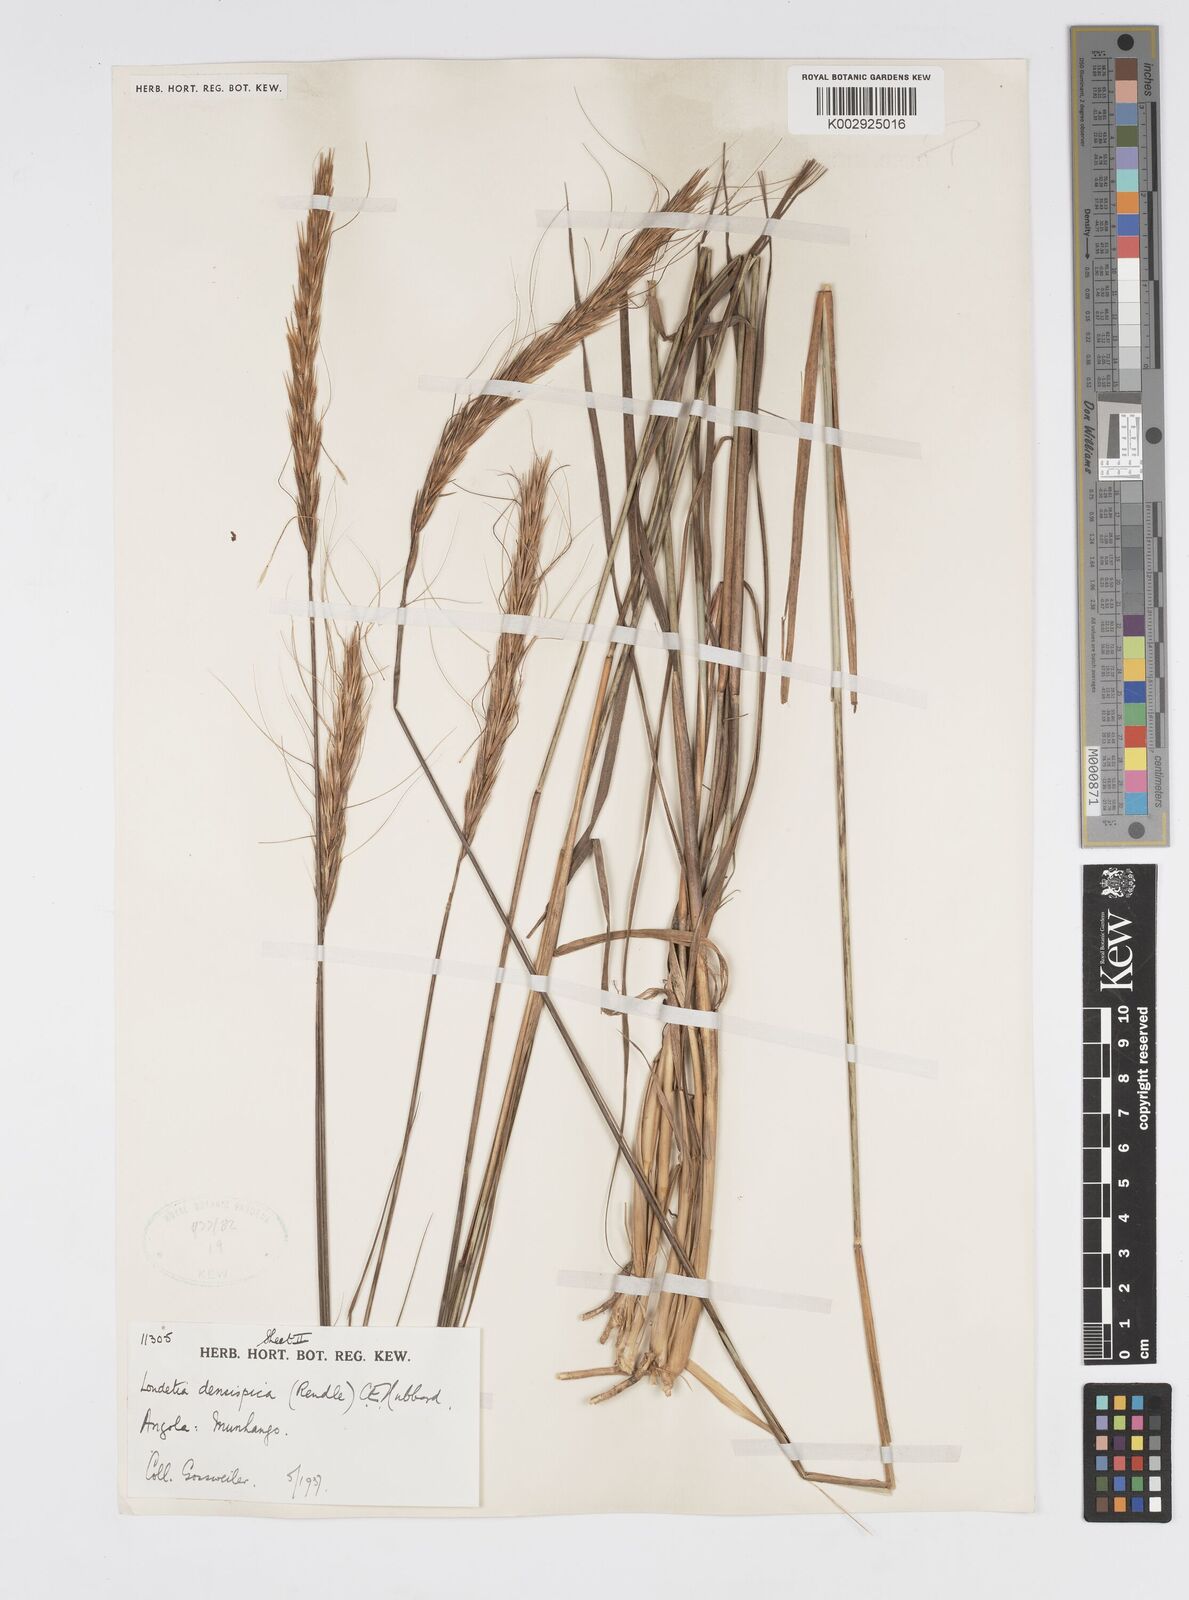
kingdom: Plantae
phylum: Tracheophyta
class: Liliopsida
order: Poales
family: Poaceae
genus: Loudetia
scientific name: Loudetia densispica
